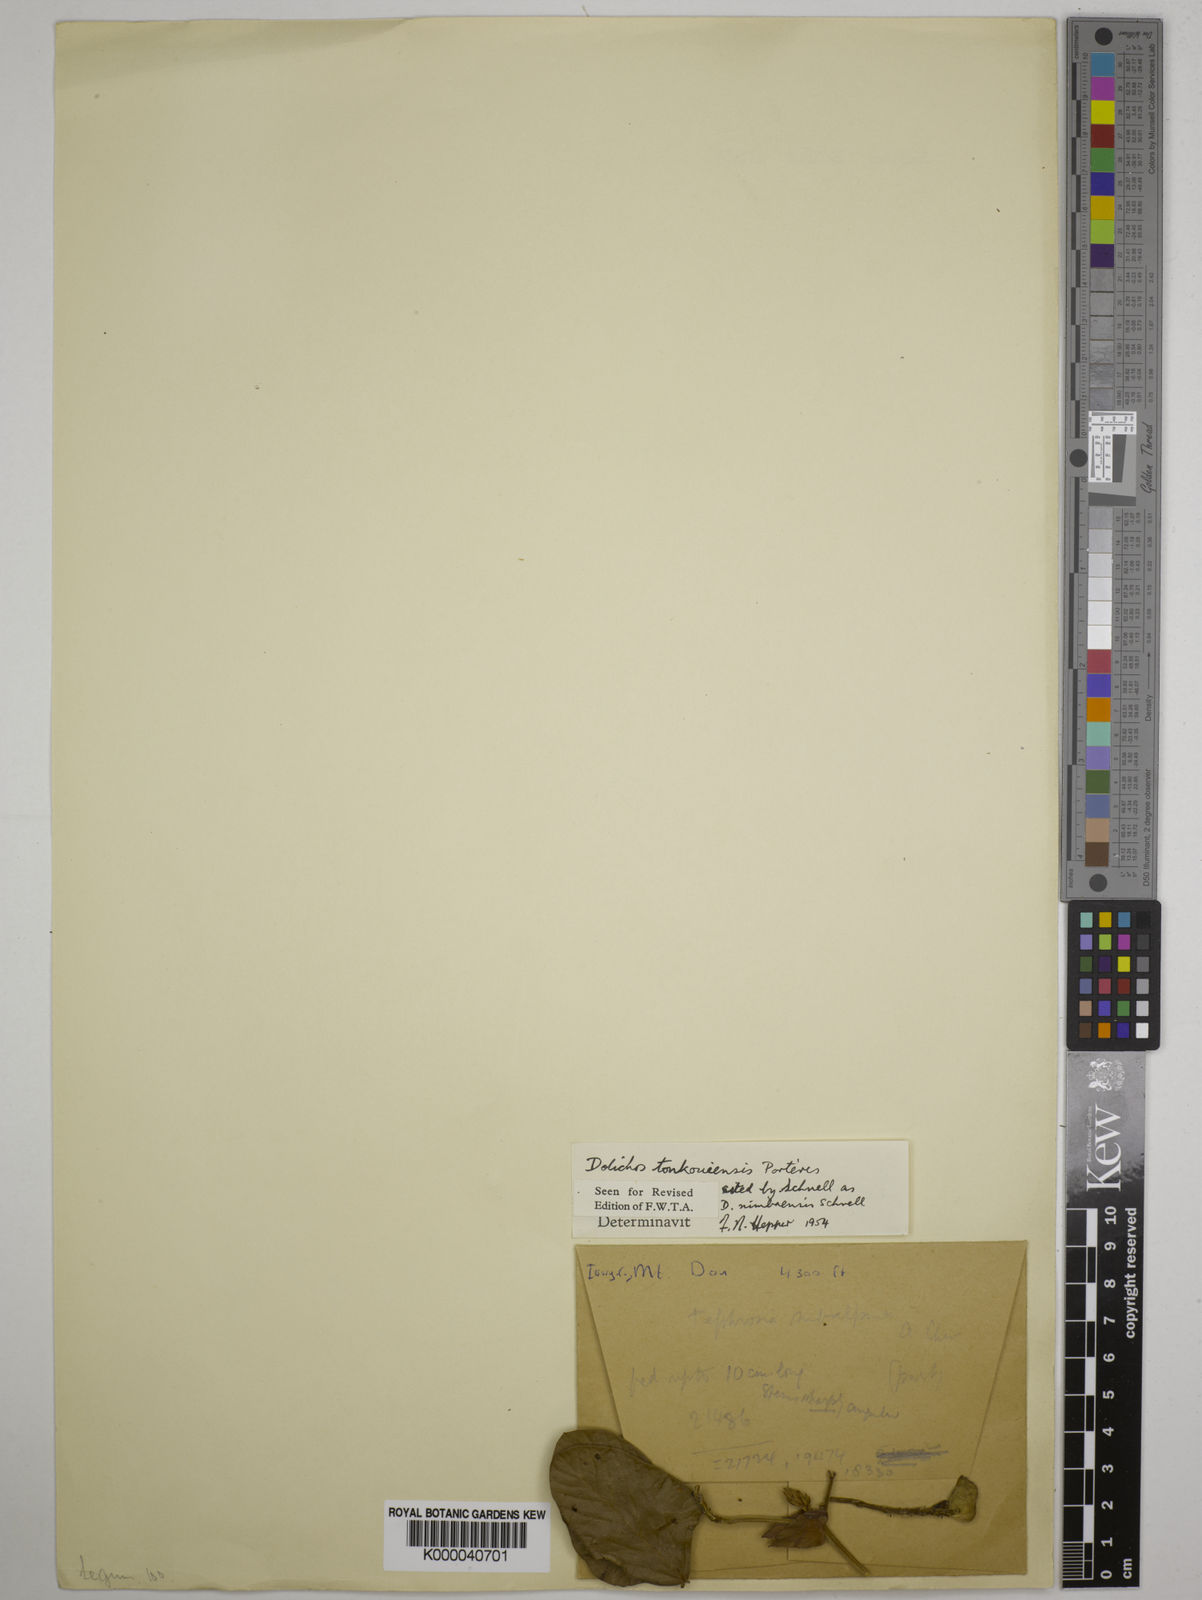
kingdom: Plantae
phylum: Tracheophyta
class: Magnoliopsida
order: Fabales
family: Fabaceae
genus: Dolichos
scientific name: Dolichos tonkouiensis
